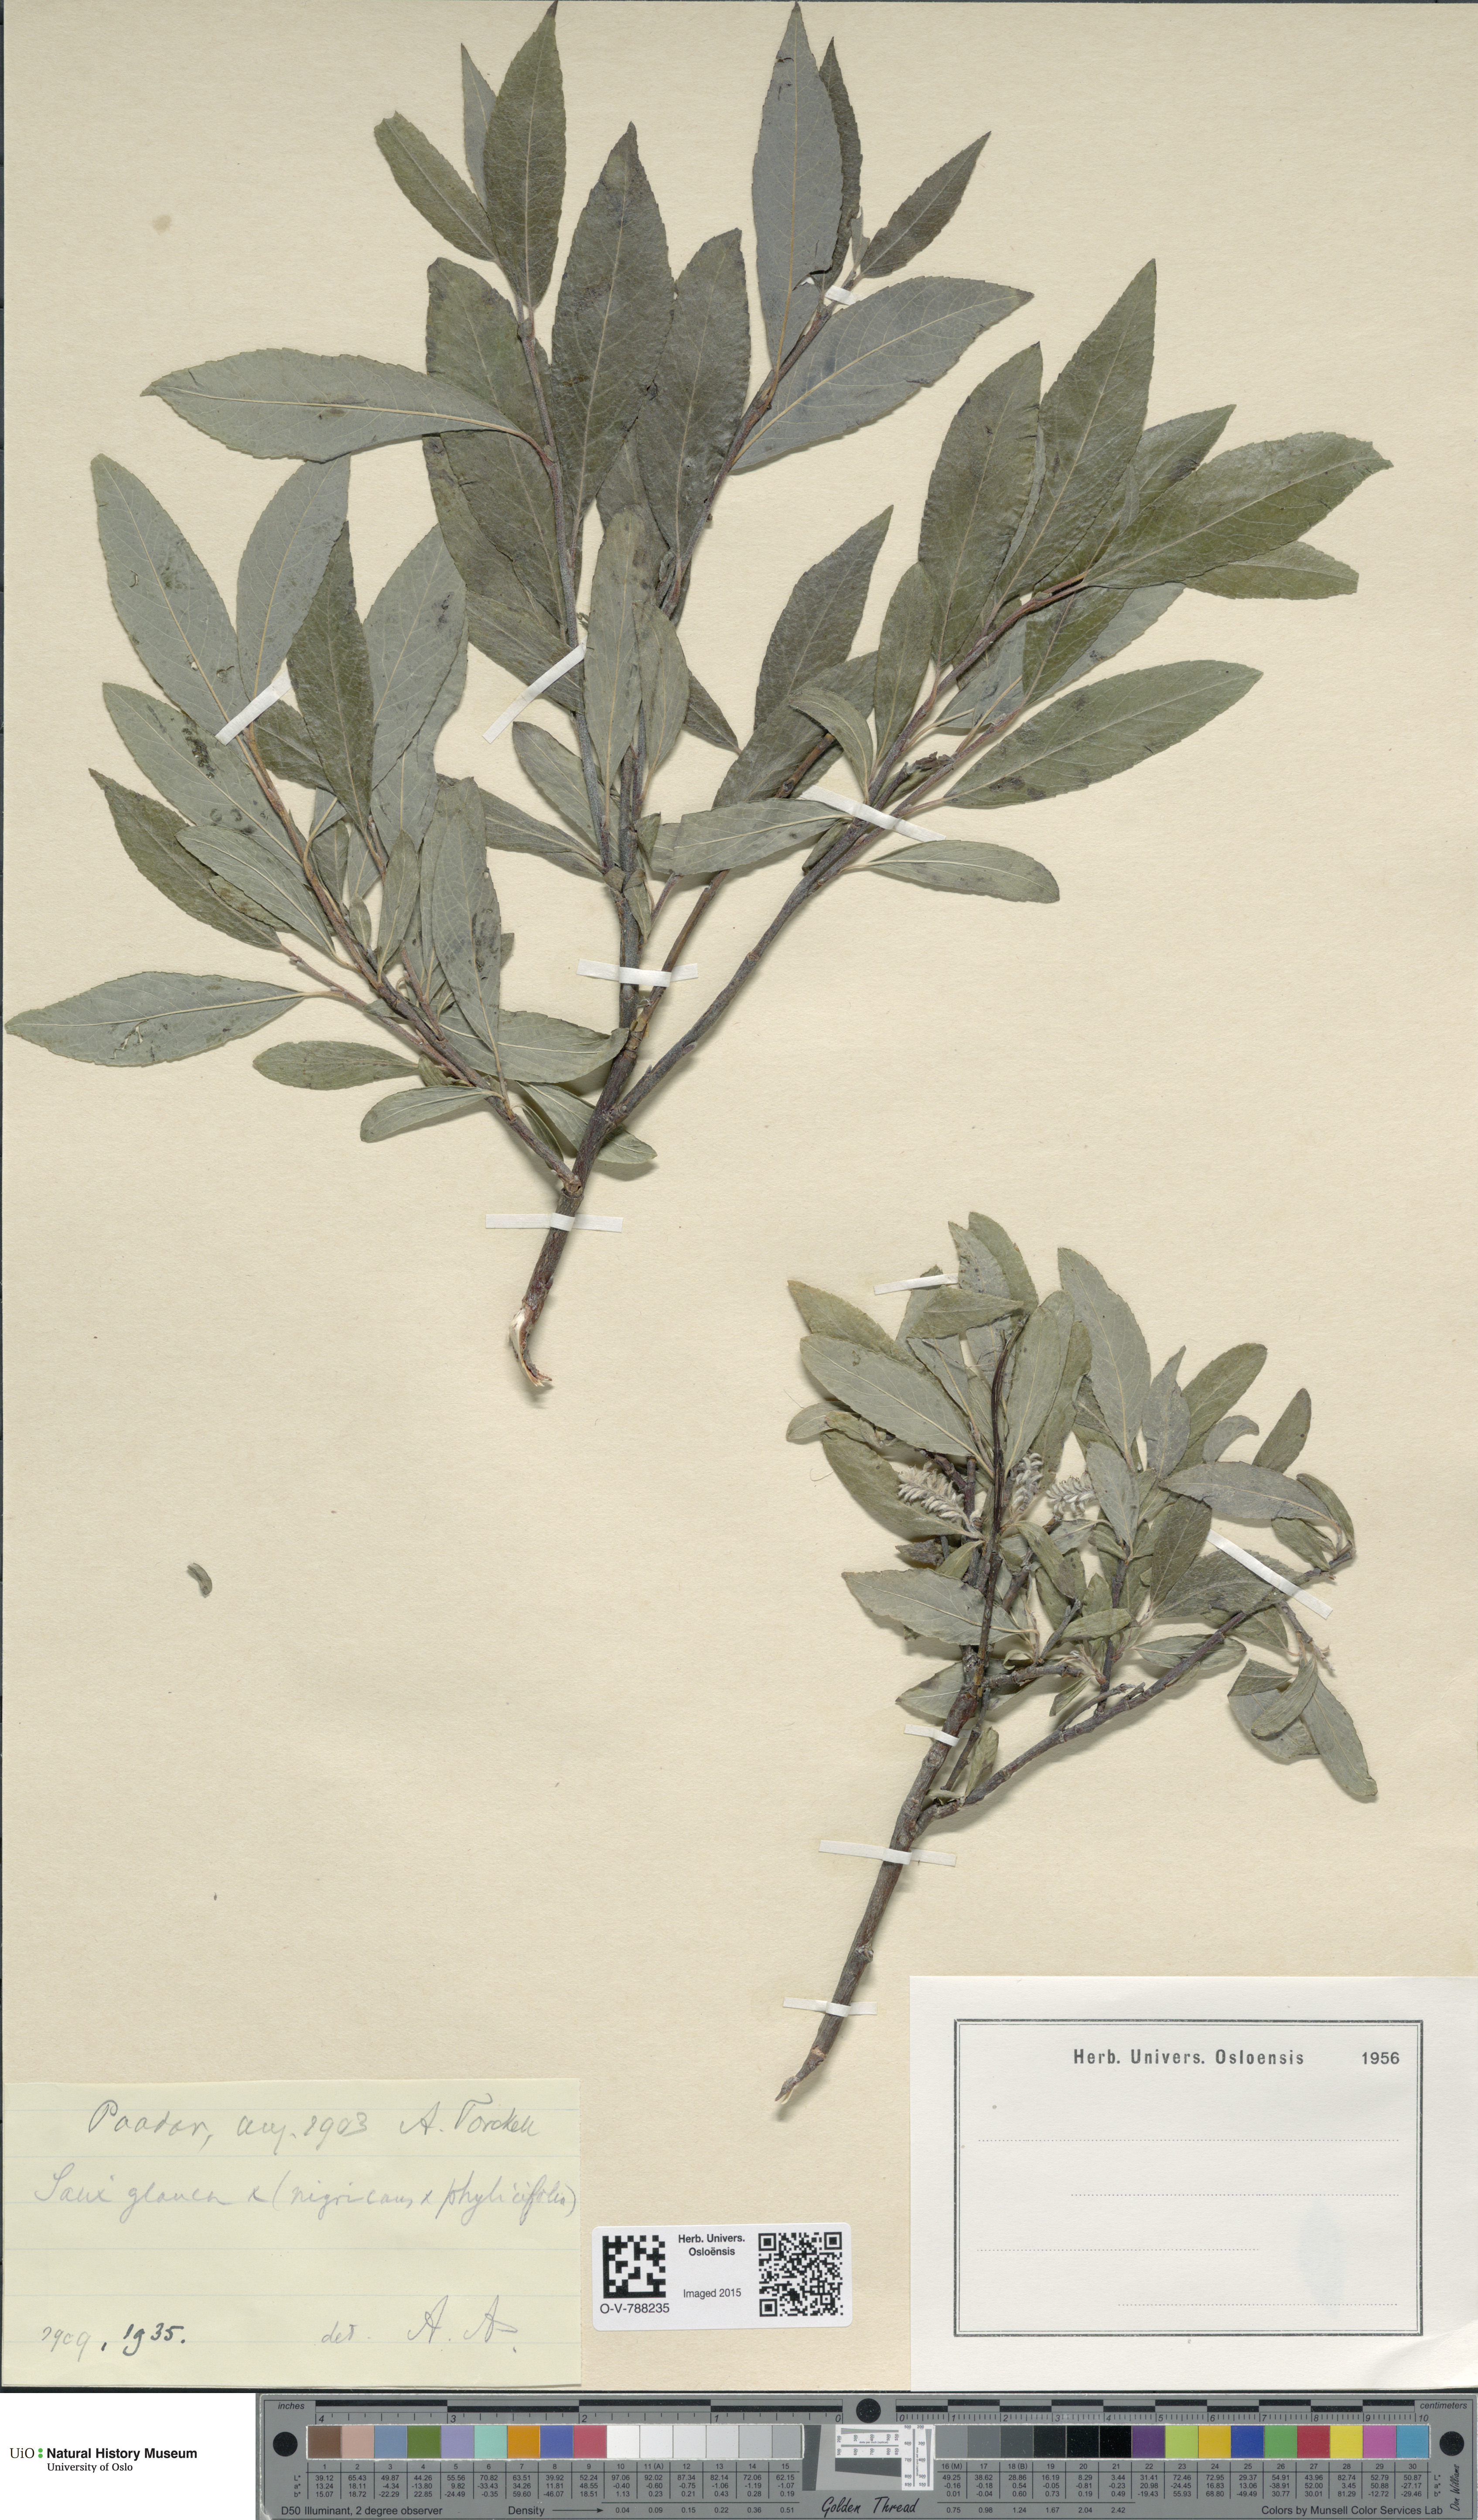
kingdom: Plantae
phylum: Tracheophyta
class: Magnoliopsida
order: Malpighiales
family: Salicaceae
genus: Salix
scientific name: Salix
